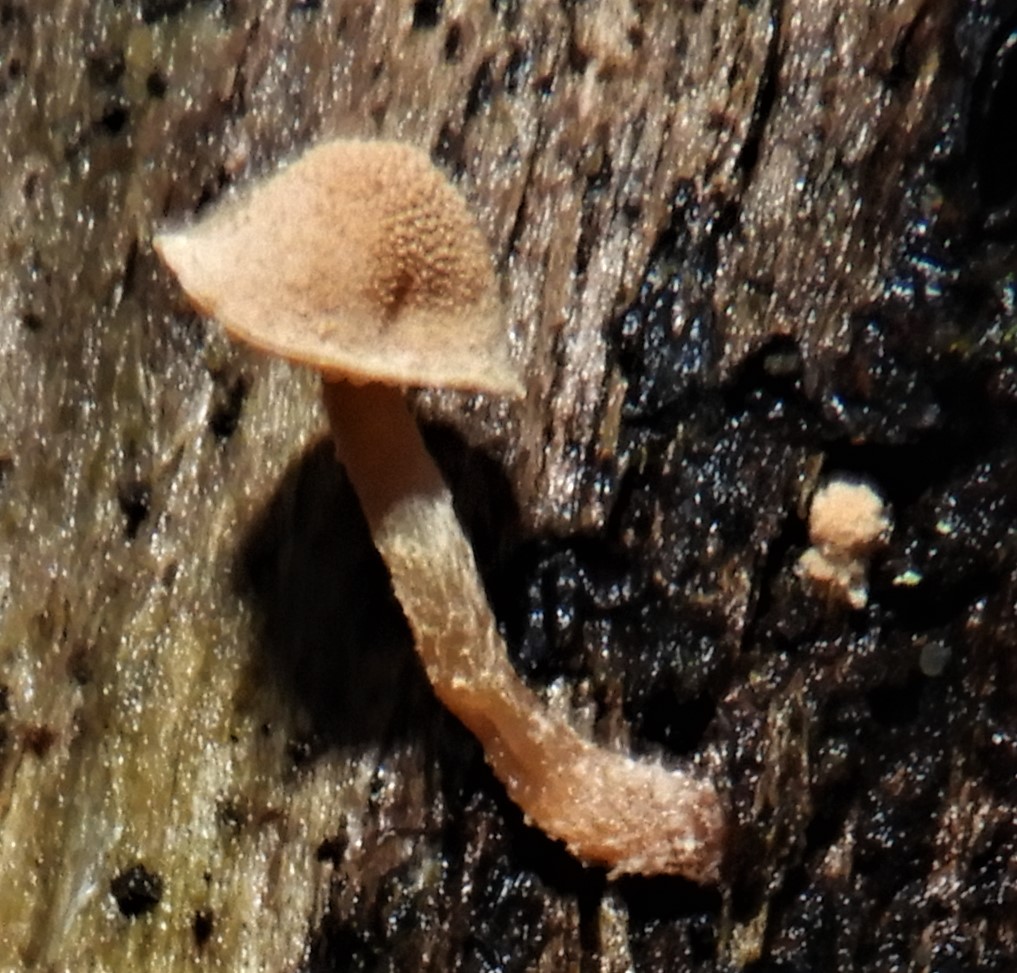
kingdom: Fungi
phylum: Basidiomycota
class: Agaricomycetes
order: Agaricales
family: Tubariaceae
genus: Flammulaster
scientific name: Flammulaster
